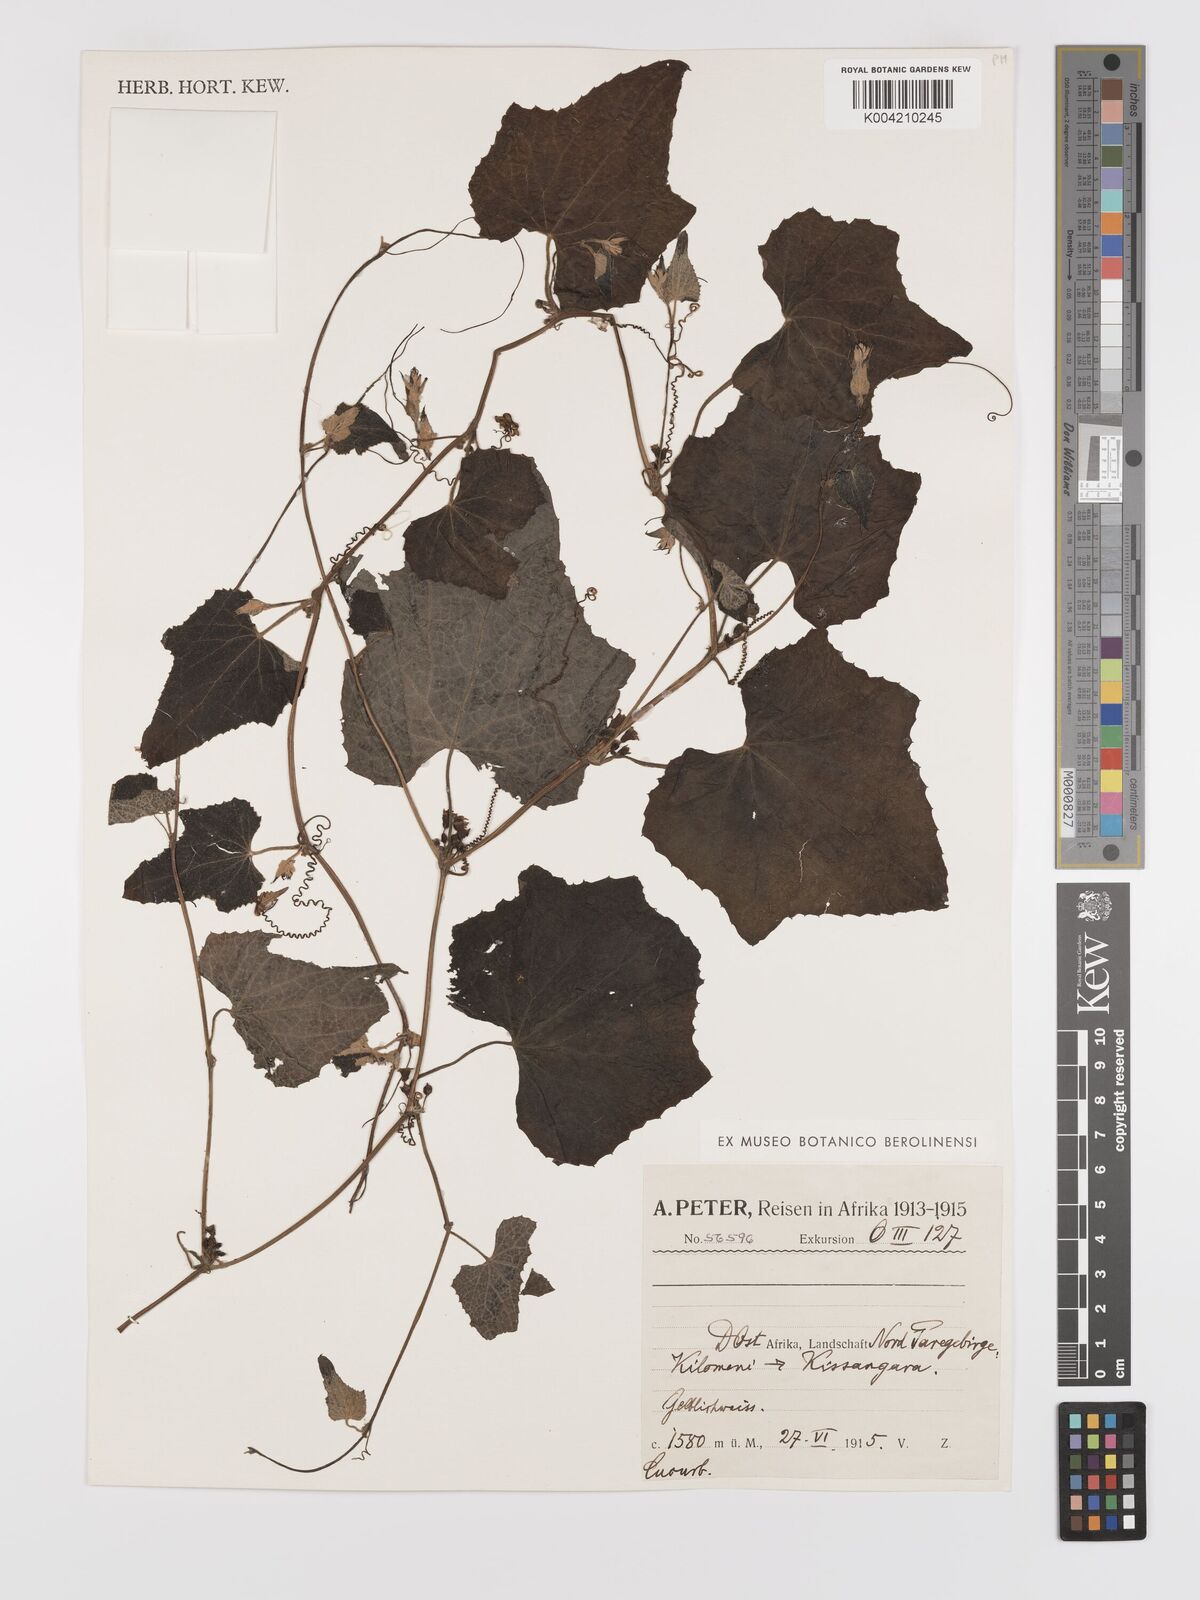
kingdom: Plantae
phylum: Tracheophyta
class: Magnoliopsida
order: Cucurbitales
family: Cucurbitaceae
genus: Zehneria
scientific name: Zehneria scabra
